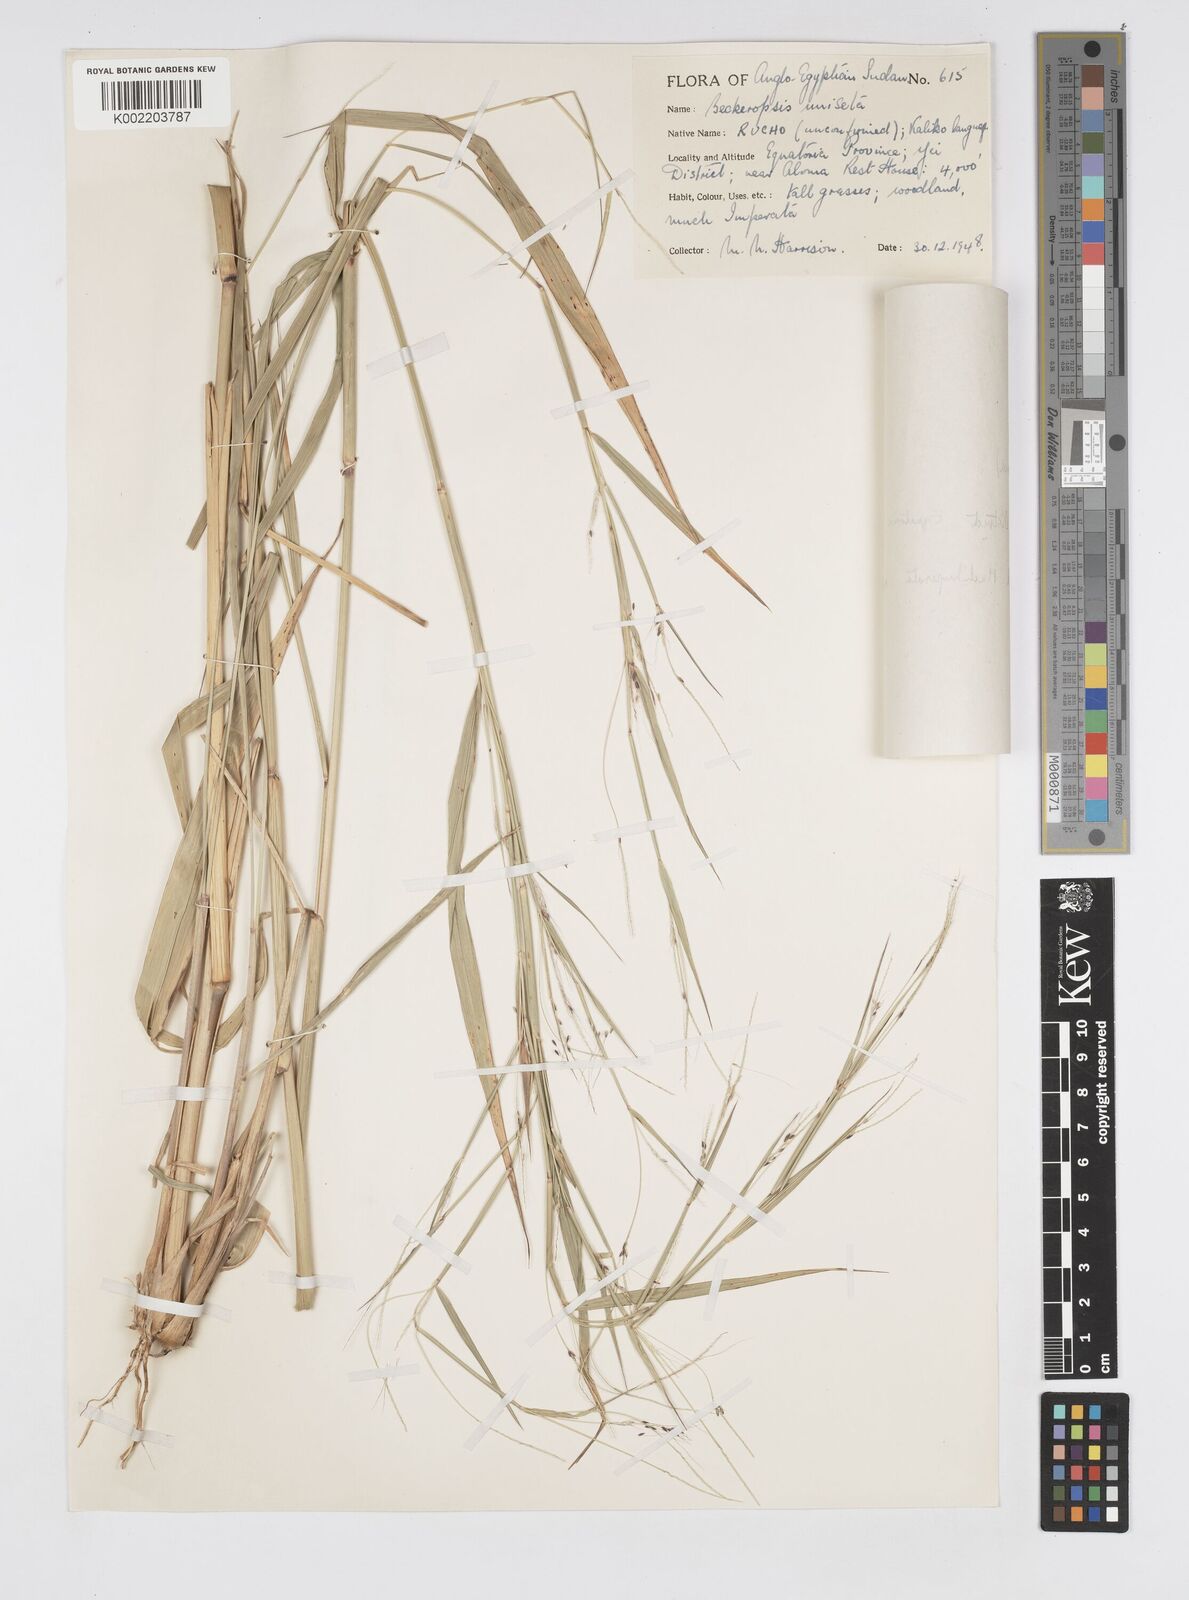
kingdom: Plantae
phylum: Tracheophyta
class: Liliopsida
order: Poales
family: Poaceae
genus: Cenchrus
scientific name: Cenchrus unisetus
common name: Natal grass
